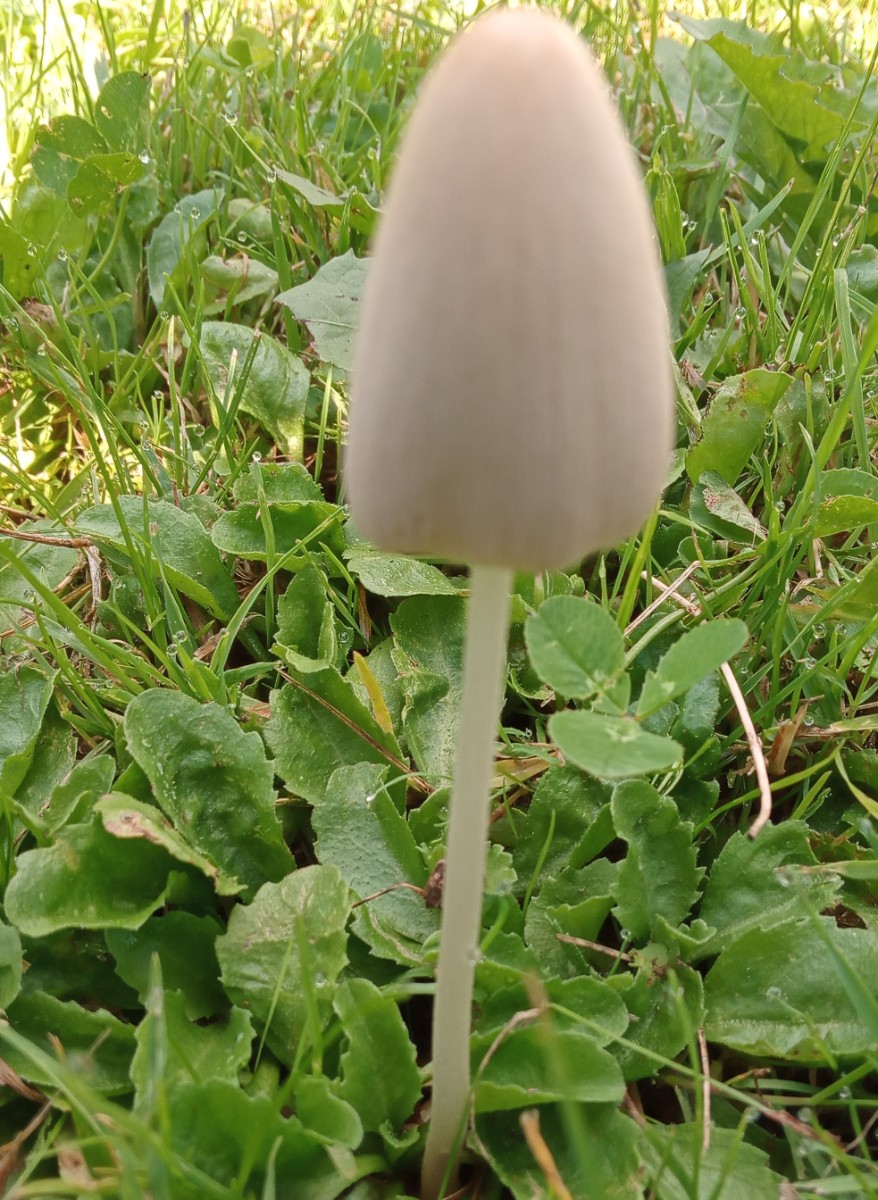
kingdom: Fungi
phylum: Basidiomycota
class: Agaricomycetes
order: Agaricales
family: Bolbitiaceae
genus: Bolbitius
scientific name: Bolbitius titubans
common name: almindelig gulhat
